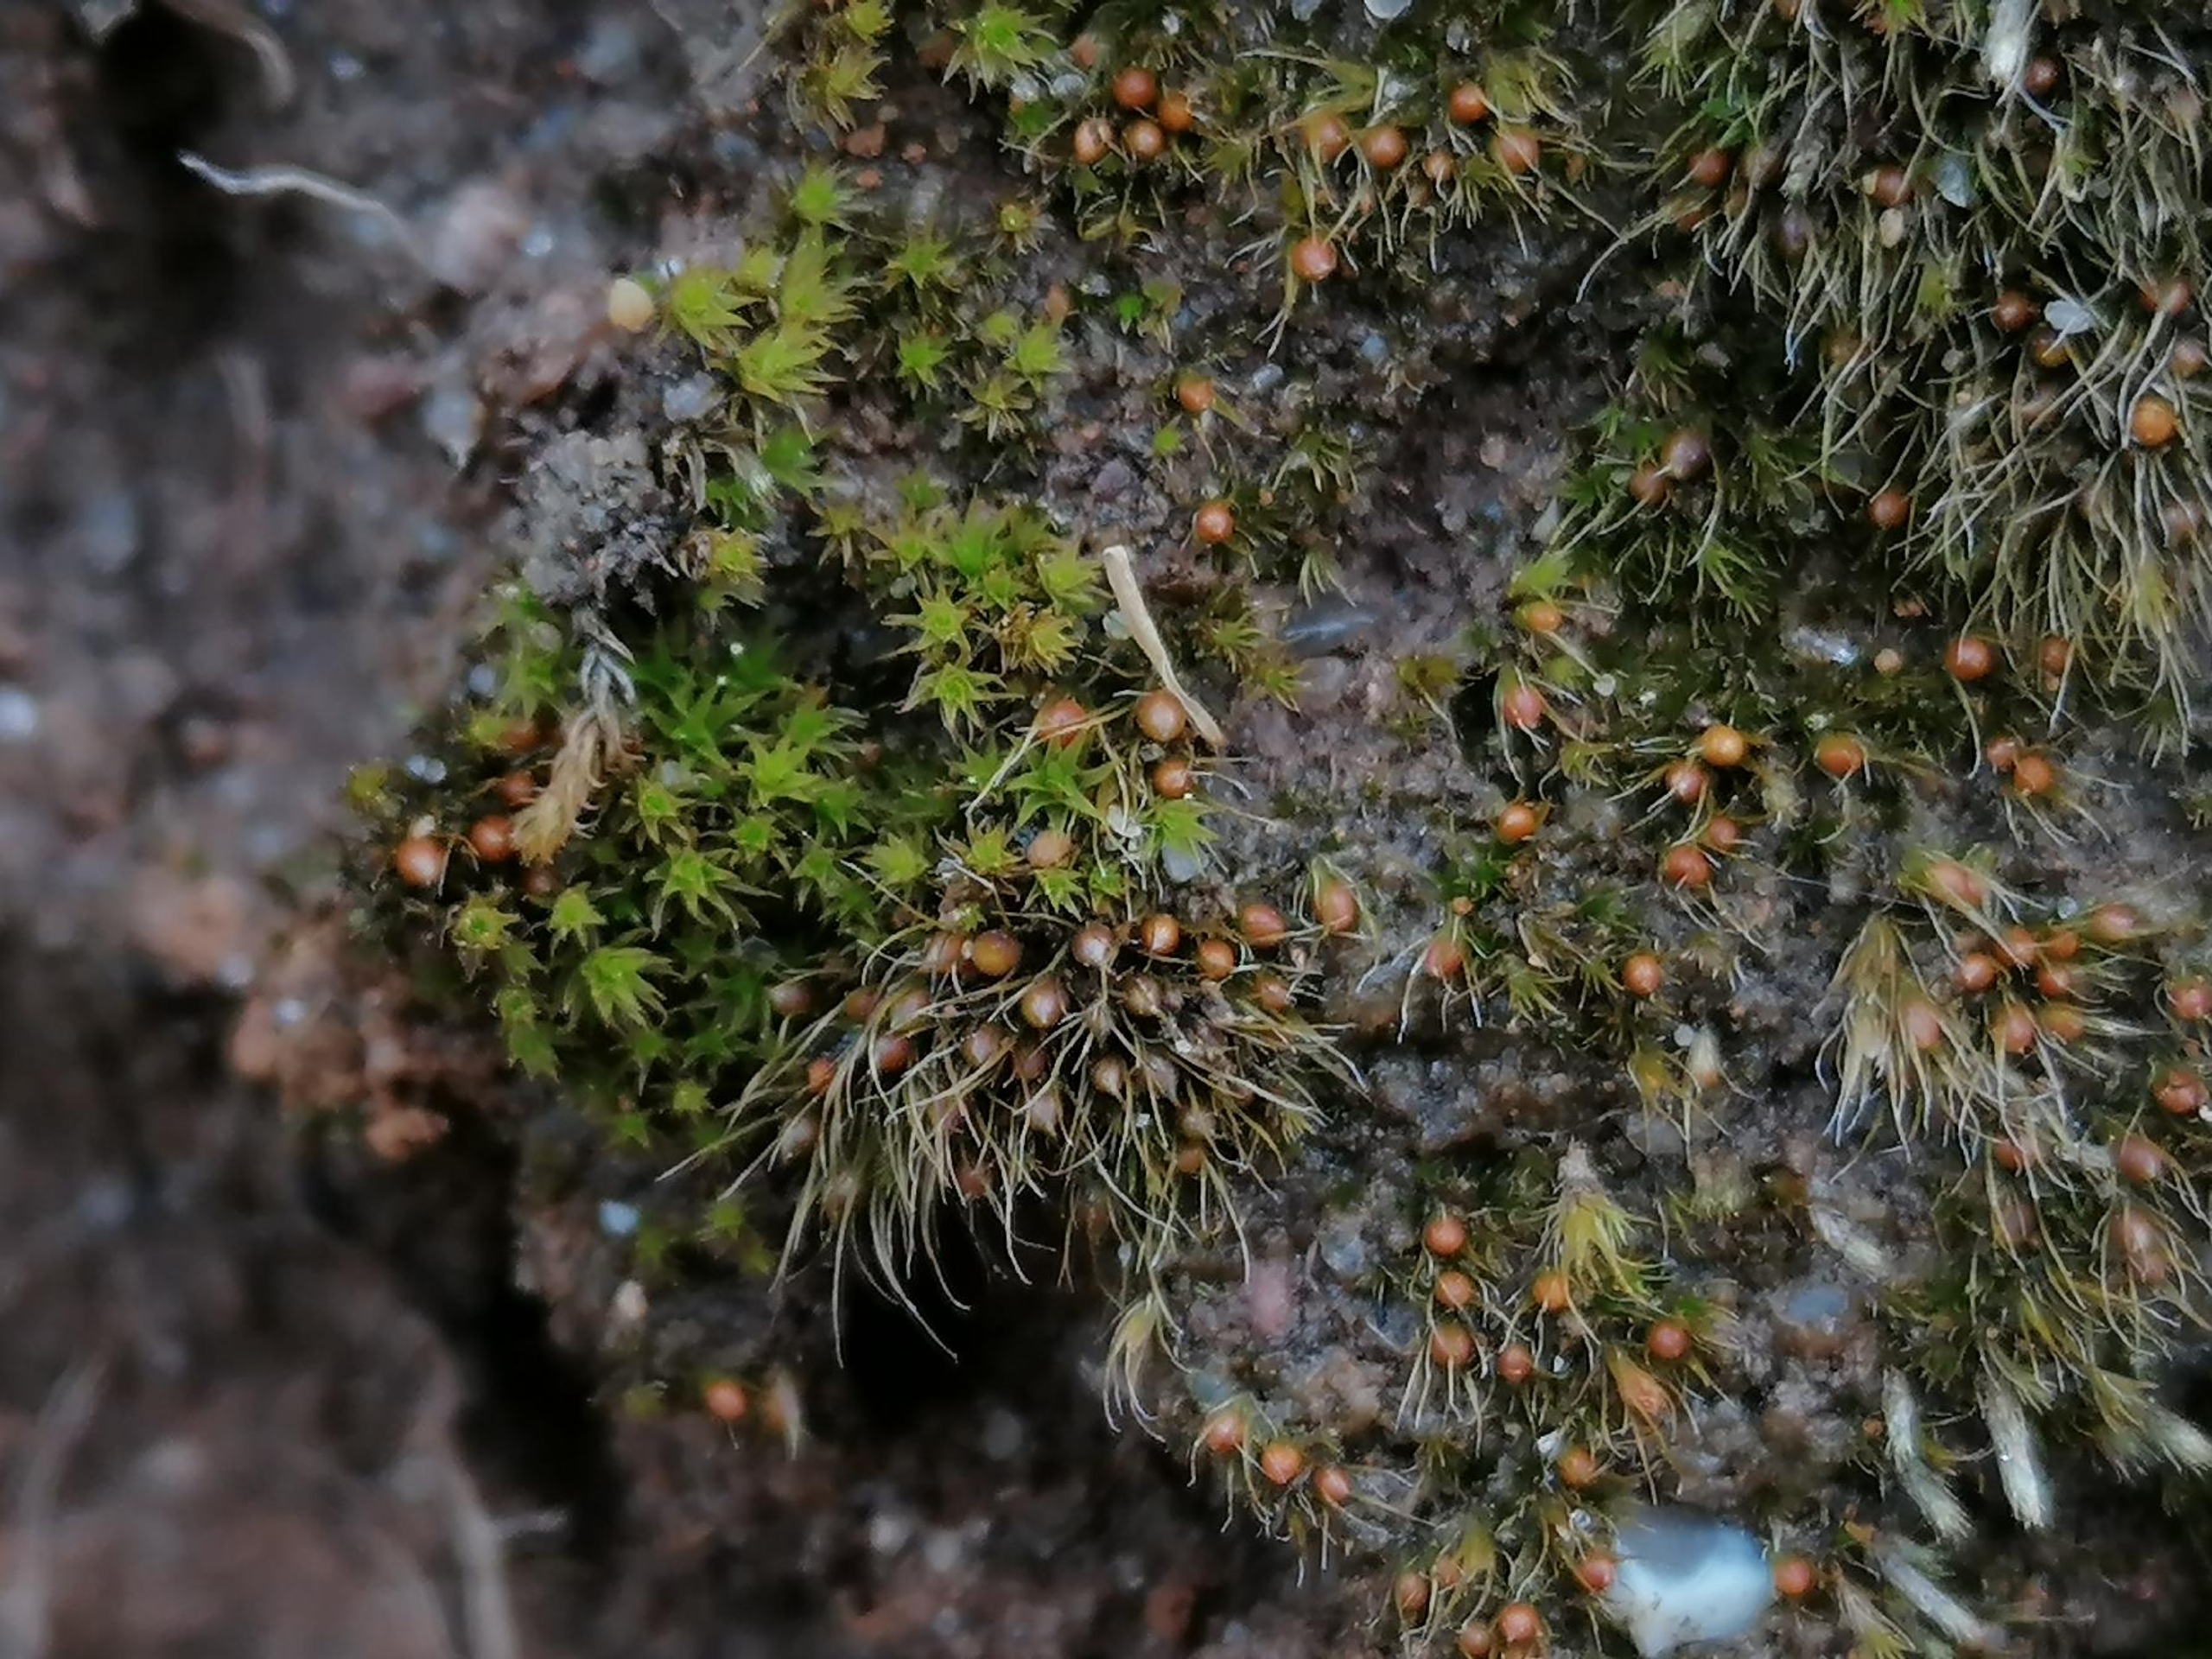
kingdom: Plantae
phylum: Bryophyta
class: Bryopsida
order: Dicranales
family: Ditrichaceae
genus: Pleuridium
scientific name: Pleuridium subulatum
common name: Kortstilket sylbladsmos
